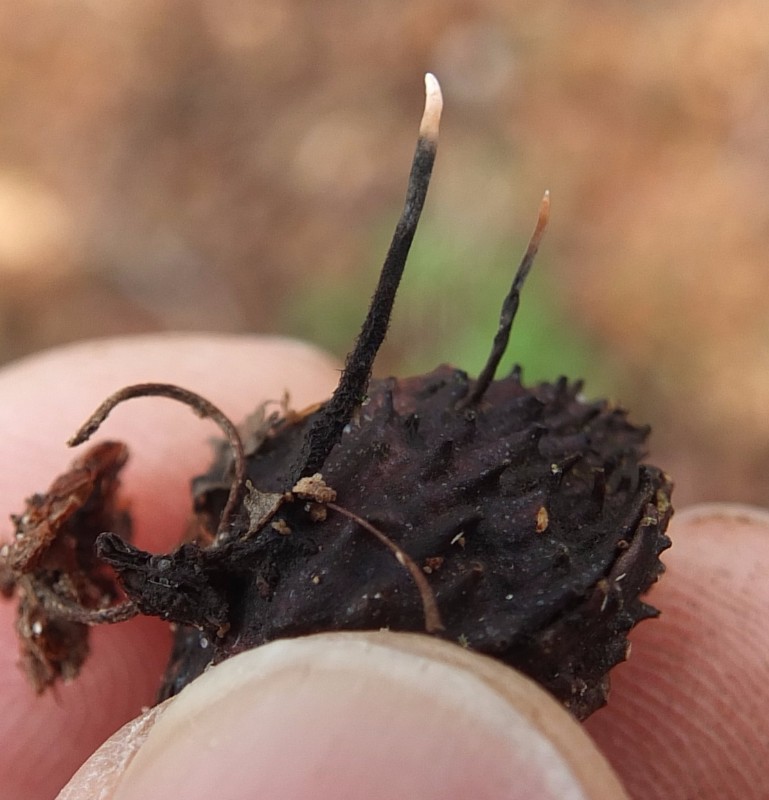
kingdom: Fungi
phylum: Ascomycota
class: Sordariomycetes
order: Xylariales
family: Xylariaceae
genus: Xylaria
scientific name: Xylaria carpophila
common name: bogskål-stødsvamp
